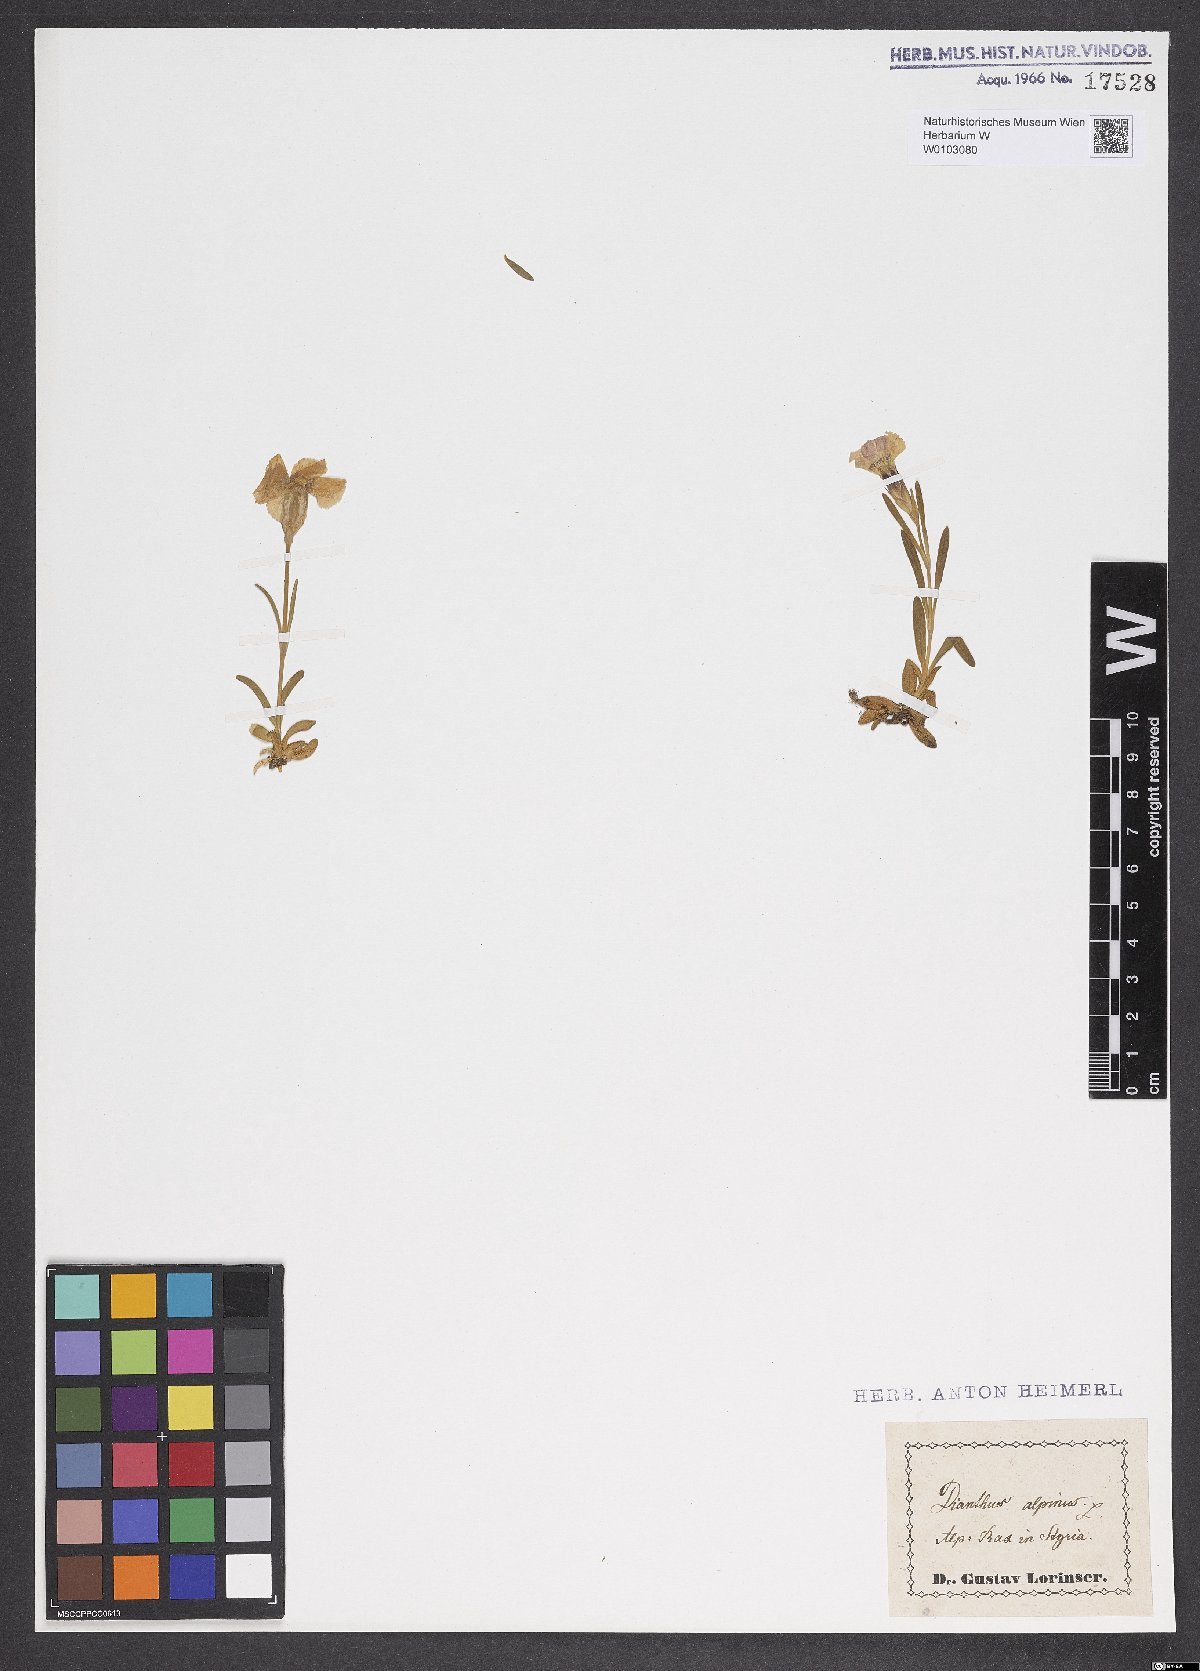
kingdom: Plantae
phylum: Tracheophyta
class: Magnoliopsida
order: Caryophyllales
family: Caryophyllaceae
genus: Dianthus
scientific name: Dianthus alpinus
